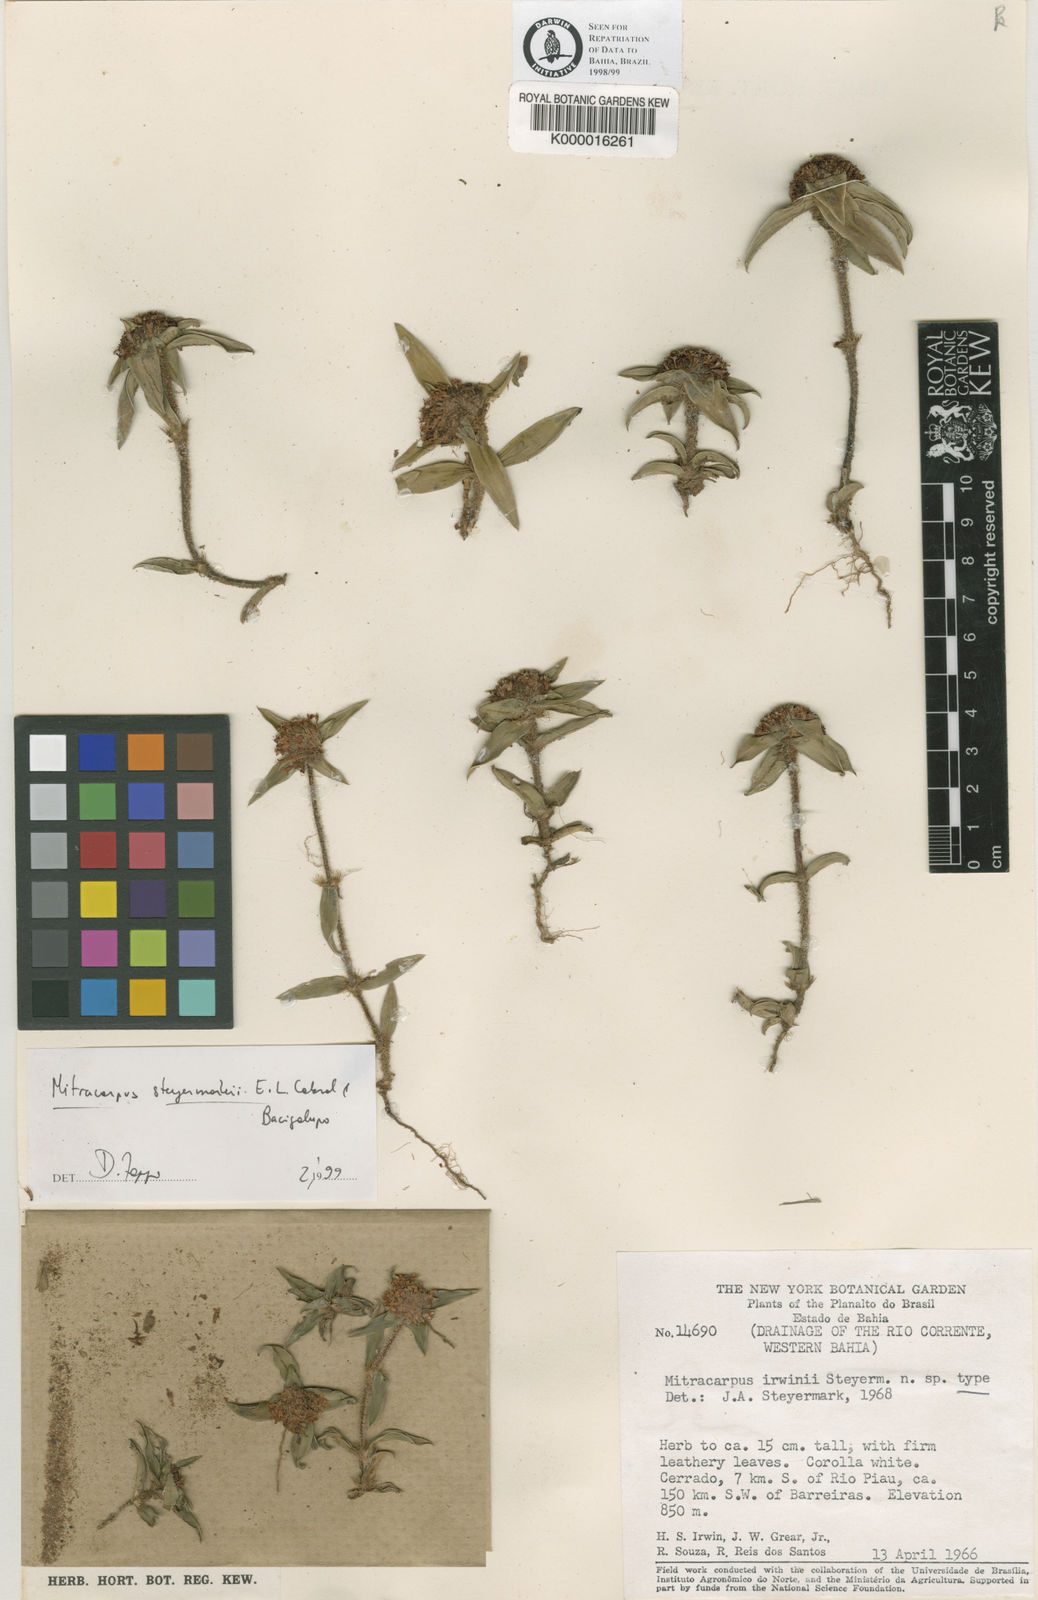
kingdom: Plantae
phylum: Tracheophyta
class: Magnoliopsida
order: Gentianales
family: Rubiaceae
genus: Mitracarpus
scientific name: Mitracarpus steyermarkii
